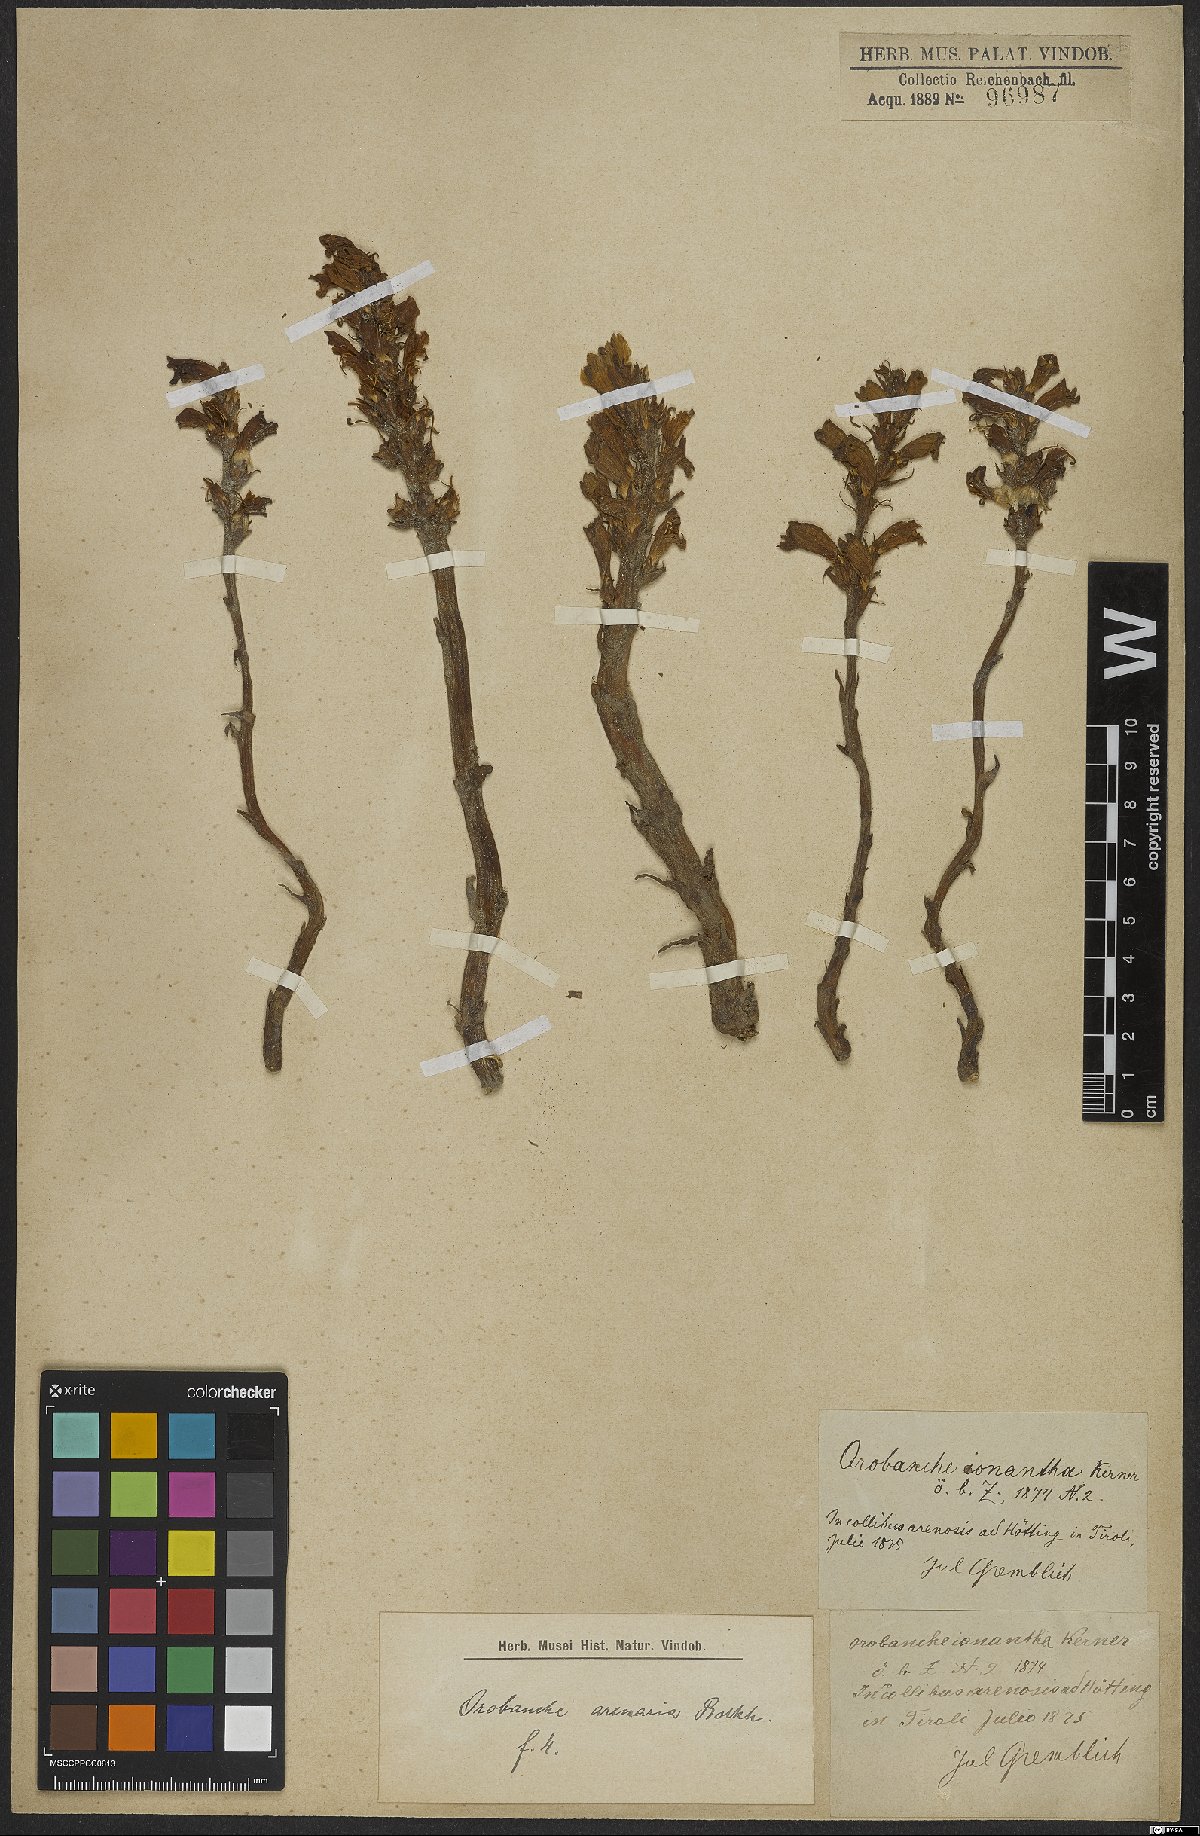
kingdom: Plantae
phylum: Tracheophyta
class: Magnoliopsida
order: Lamiales
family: Orobanchaceae
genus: Phelipanche
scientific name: Phelipanche arenaria
